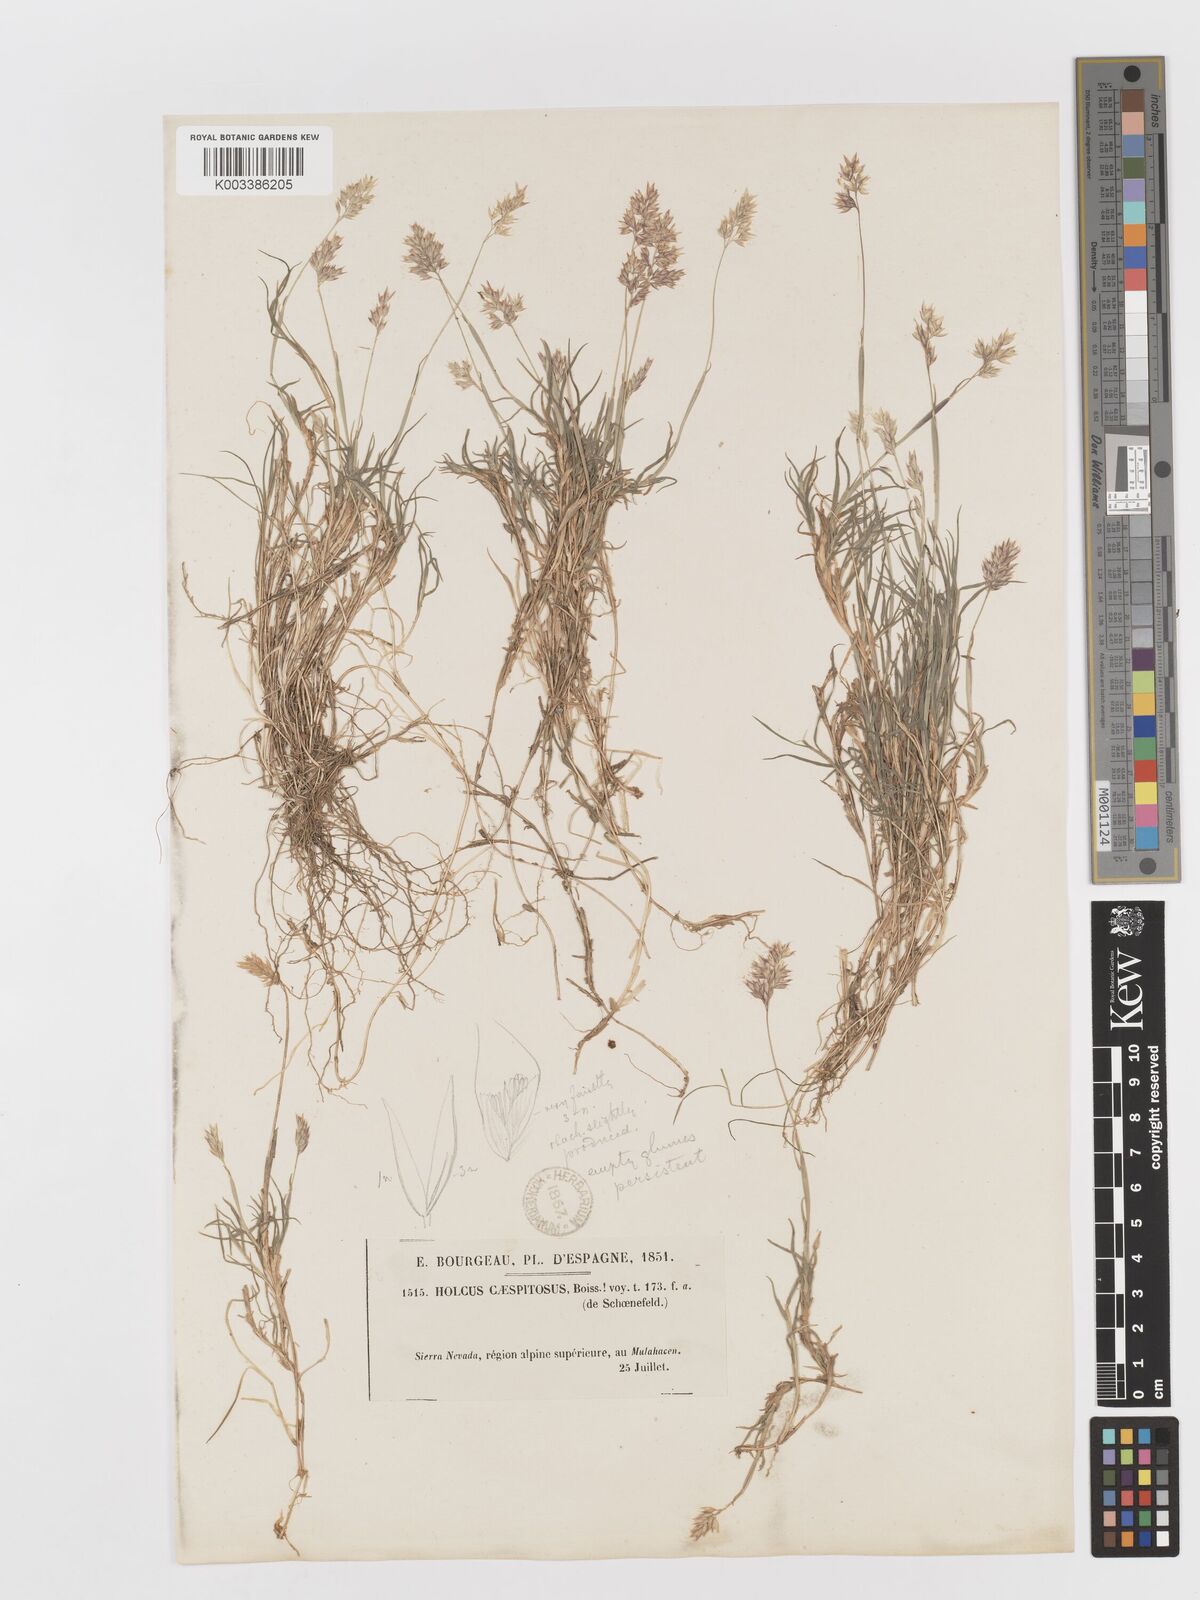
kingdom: Plantae
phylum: Tracheophyta
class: Liliopsida
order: Poales
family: Poaceae
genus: Holcus
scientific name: Holcus caespitosus
